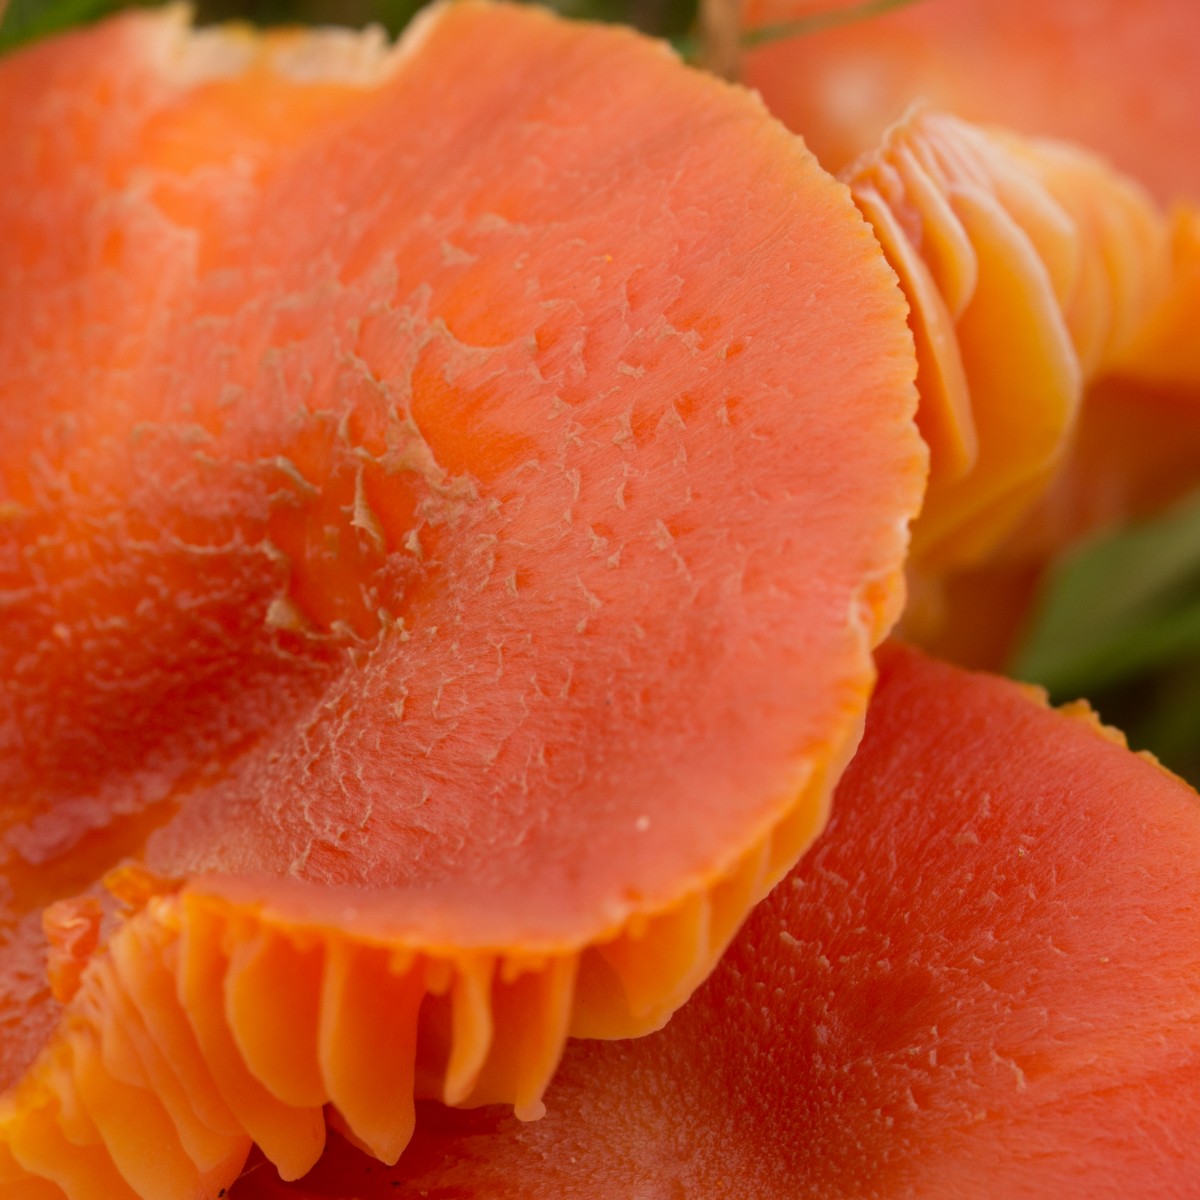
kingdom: Fungi
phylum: Basidiomycota
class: Agaricomycetes
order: Agaricales
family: Hygrophoraceae
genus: Hygrocybe
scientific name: Hygrocybe miniata
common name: mønje-vokshat
